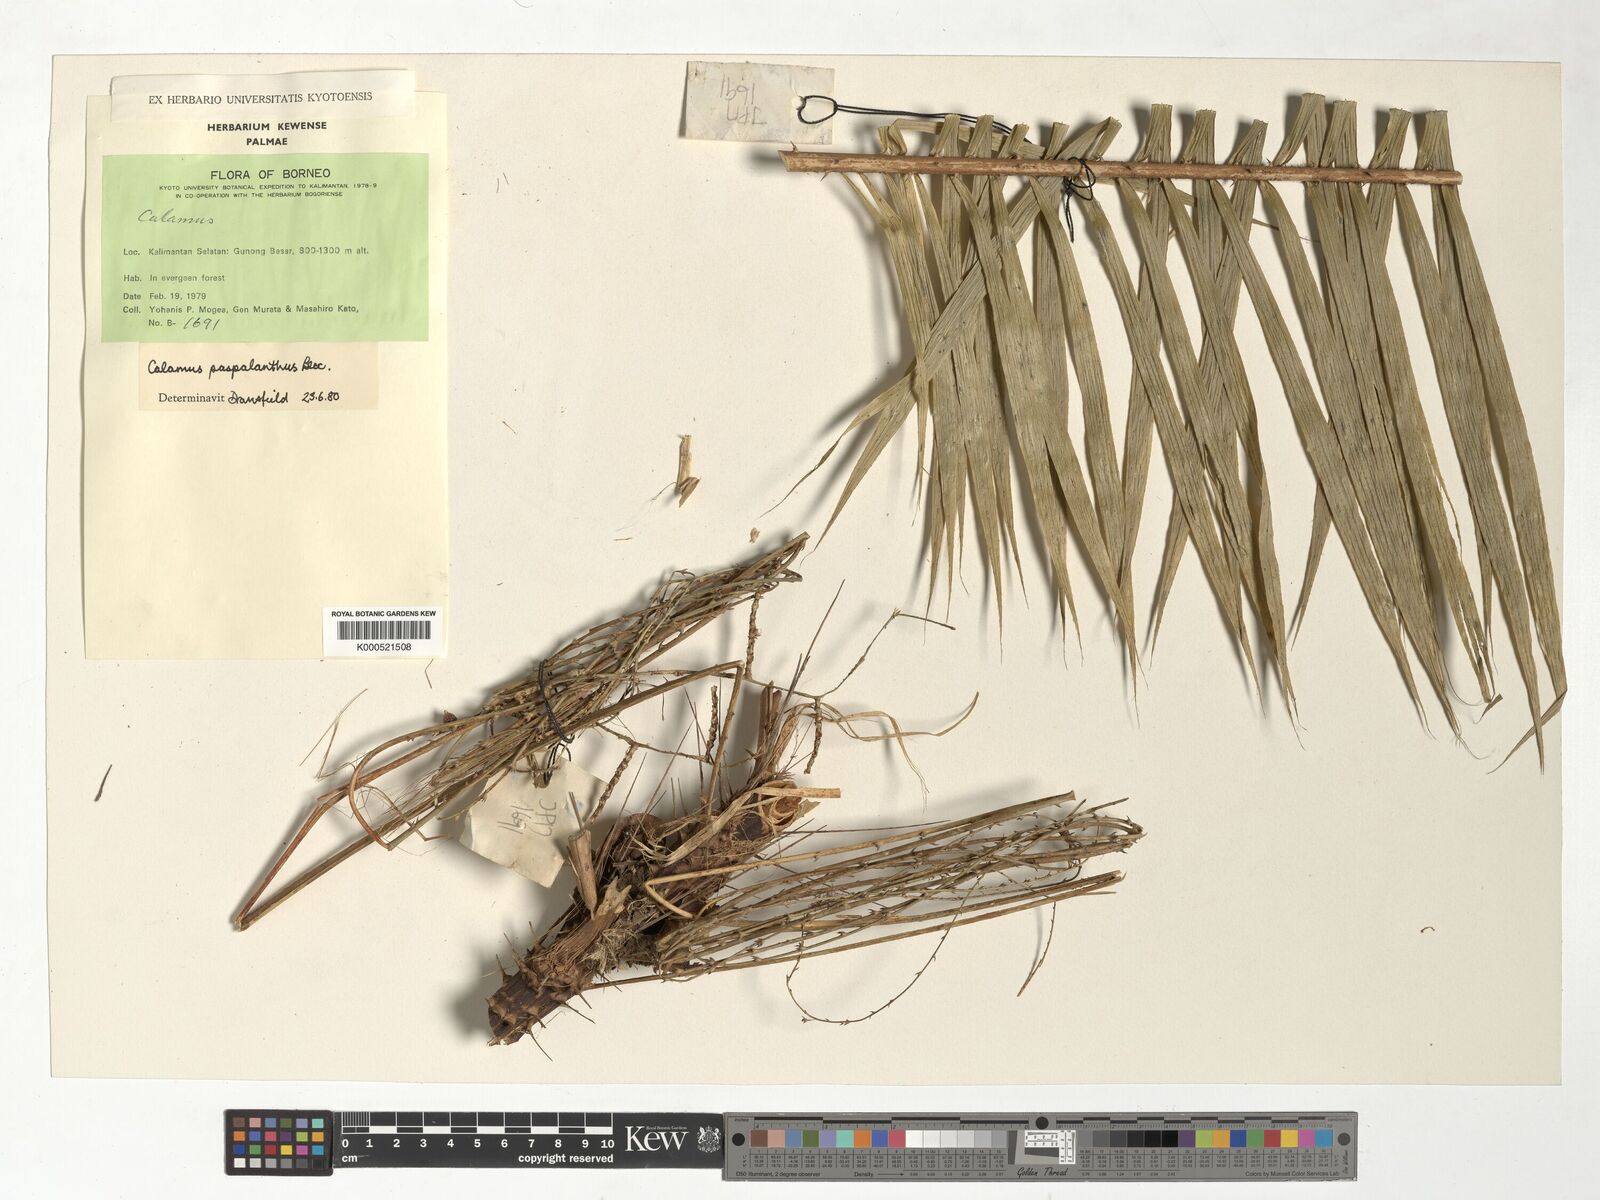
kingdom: Plantae
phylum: Tracheophyta
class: Liliopsida
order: Arecales
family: Arecaceae
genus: Calamus
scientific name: Calamus paspalanthus
